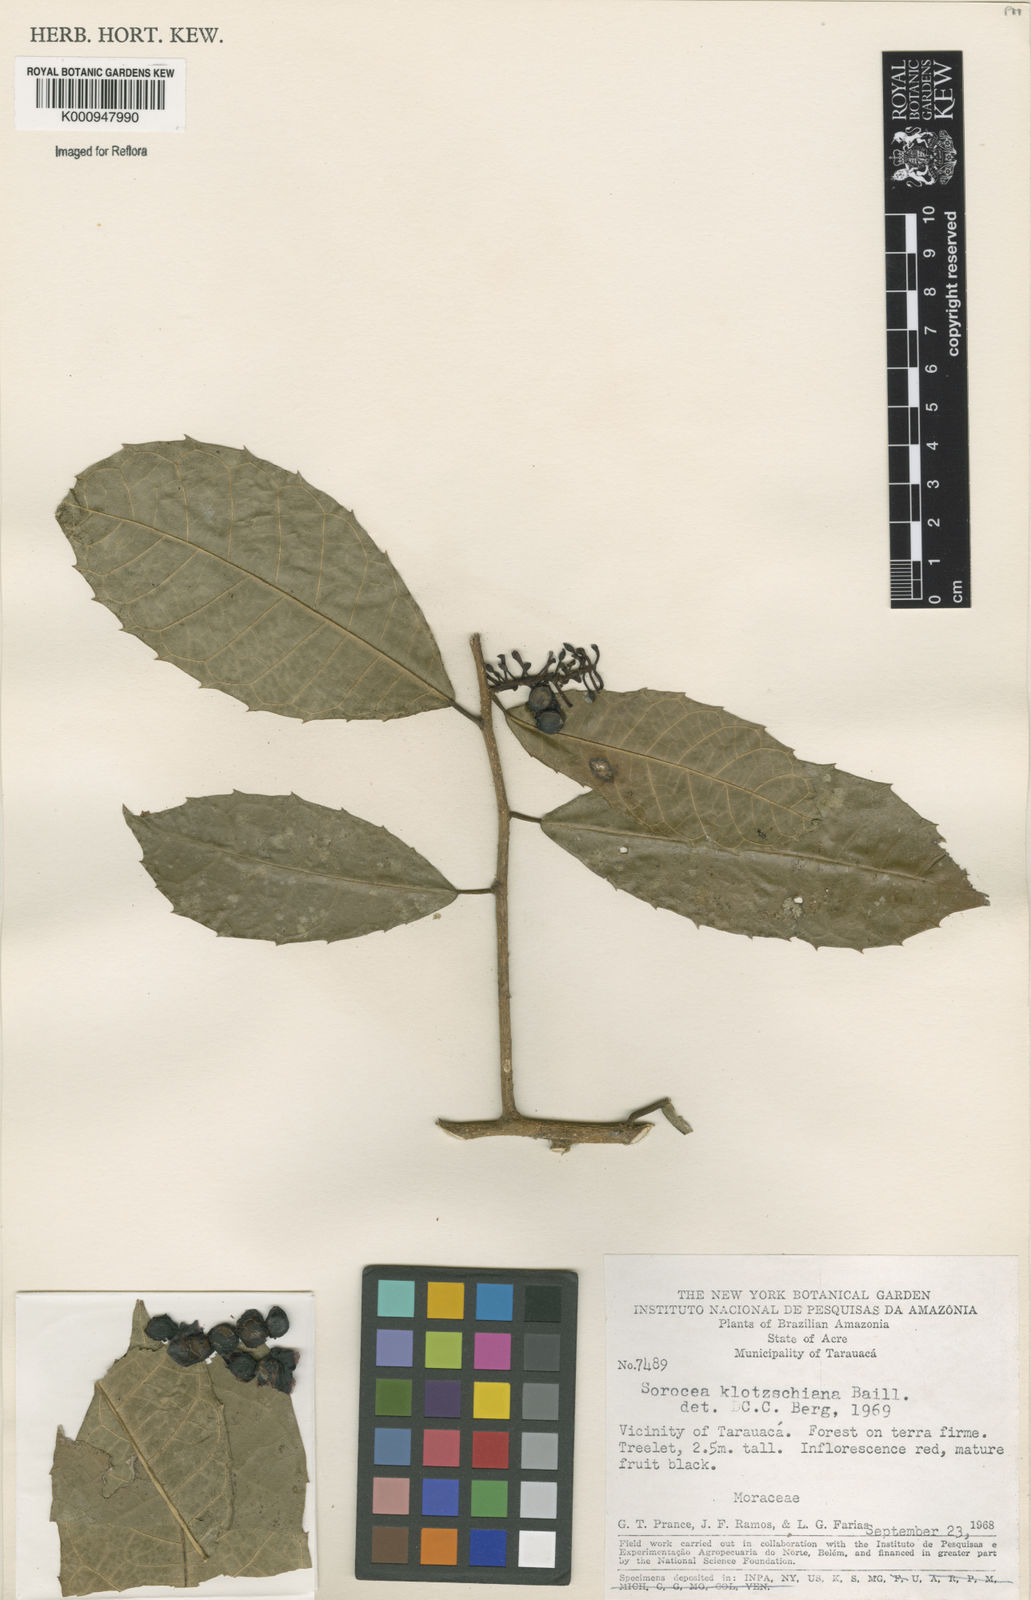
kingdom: Plantae
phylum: Tracheophyta
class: Magnoliopsida
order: Rosales
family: Moraceae
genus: Sorocea
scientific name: Sorocea guilleminiana
